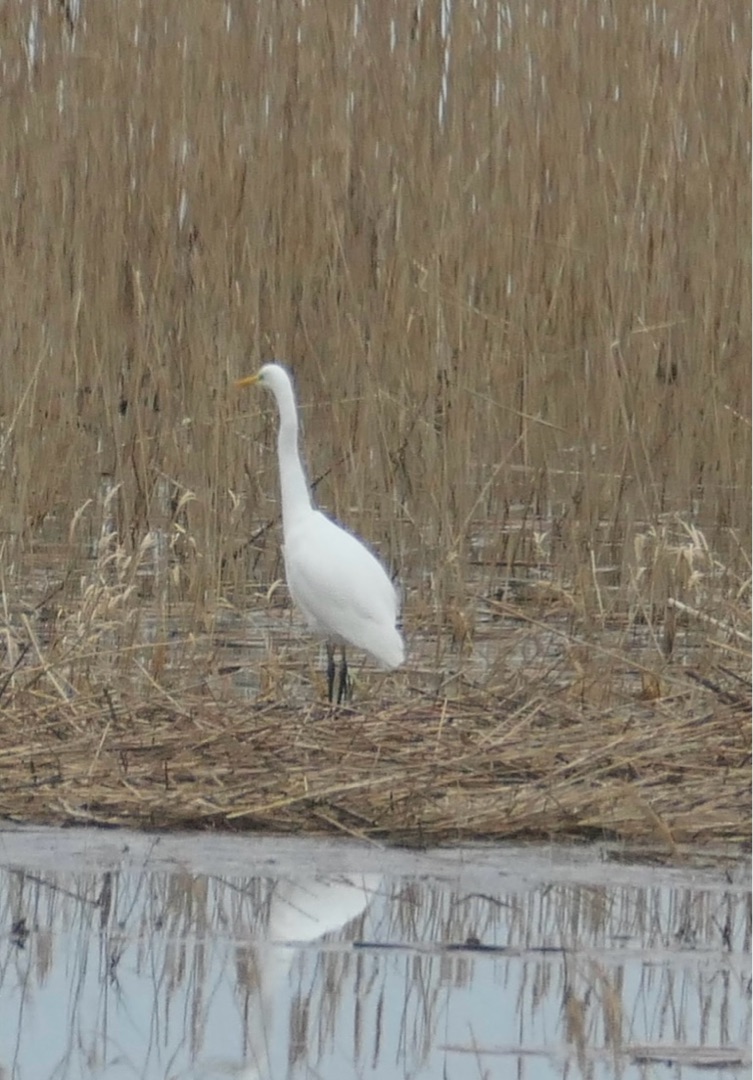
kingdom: Animalia
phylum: Chordata
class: Aves
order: Pelecaniformes
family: Ardeidae
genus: Ardea
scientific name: Ardea alba
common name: Sølvhejre
